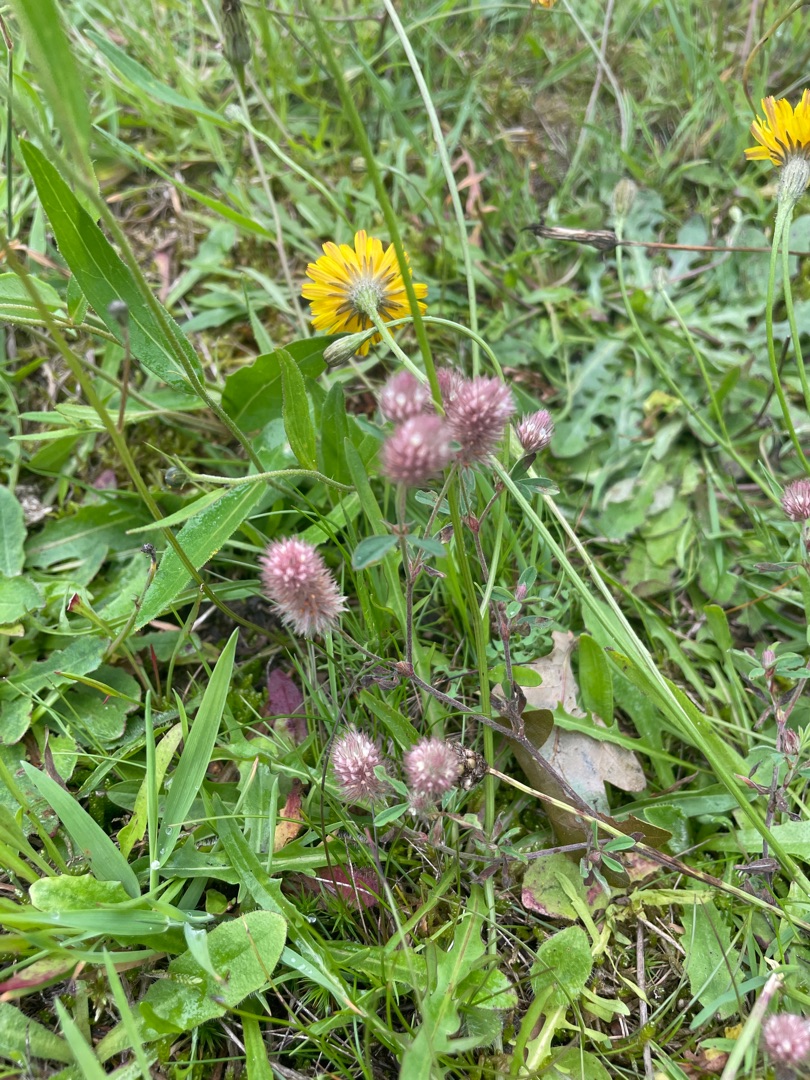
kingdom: Plantae
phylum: Tracheophyta
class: Magnoliopsida
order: Fabales
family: Fabaceae
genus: Trifolium
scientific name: Trifolium arvense
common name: Hare-kløver
